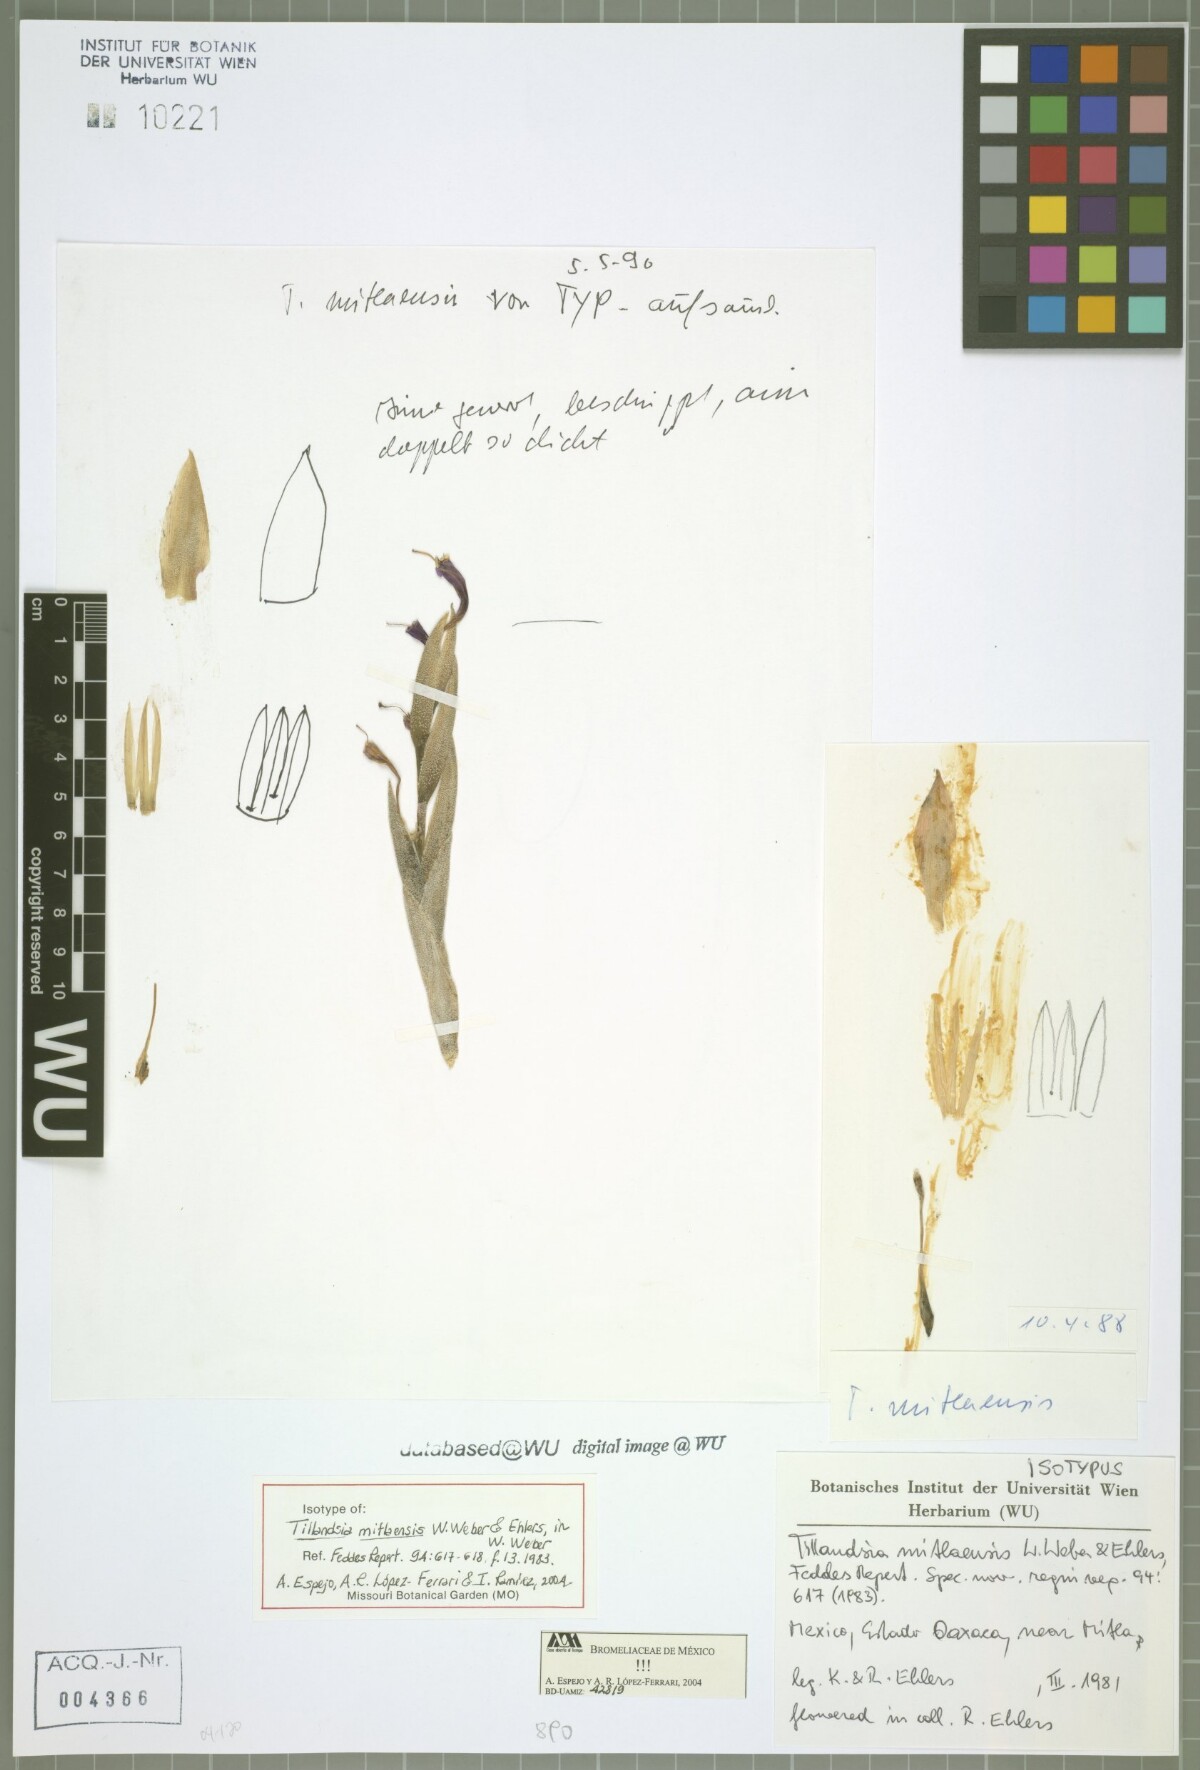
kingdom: Plantae
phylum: Tracheophyta
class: Liliopsida
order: Poales
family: Bromeliaceae
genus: Tillandsia
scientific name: Tillandsia mitlaensis
